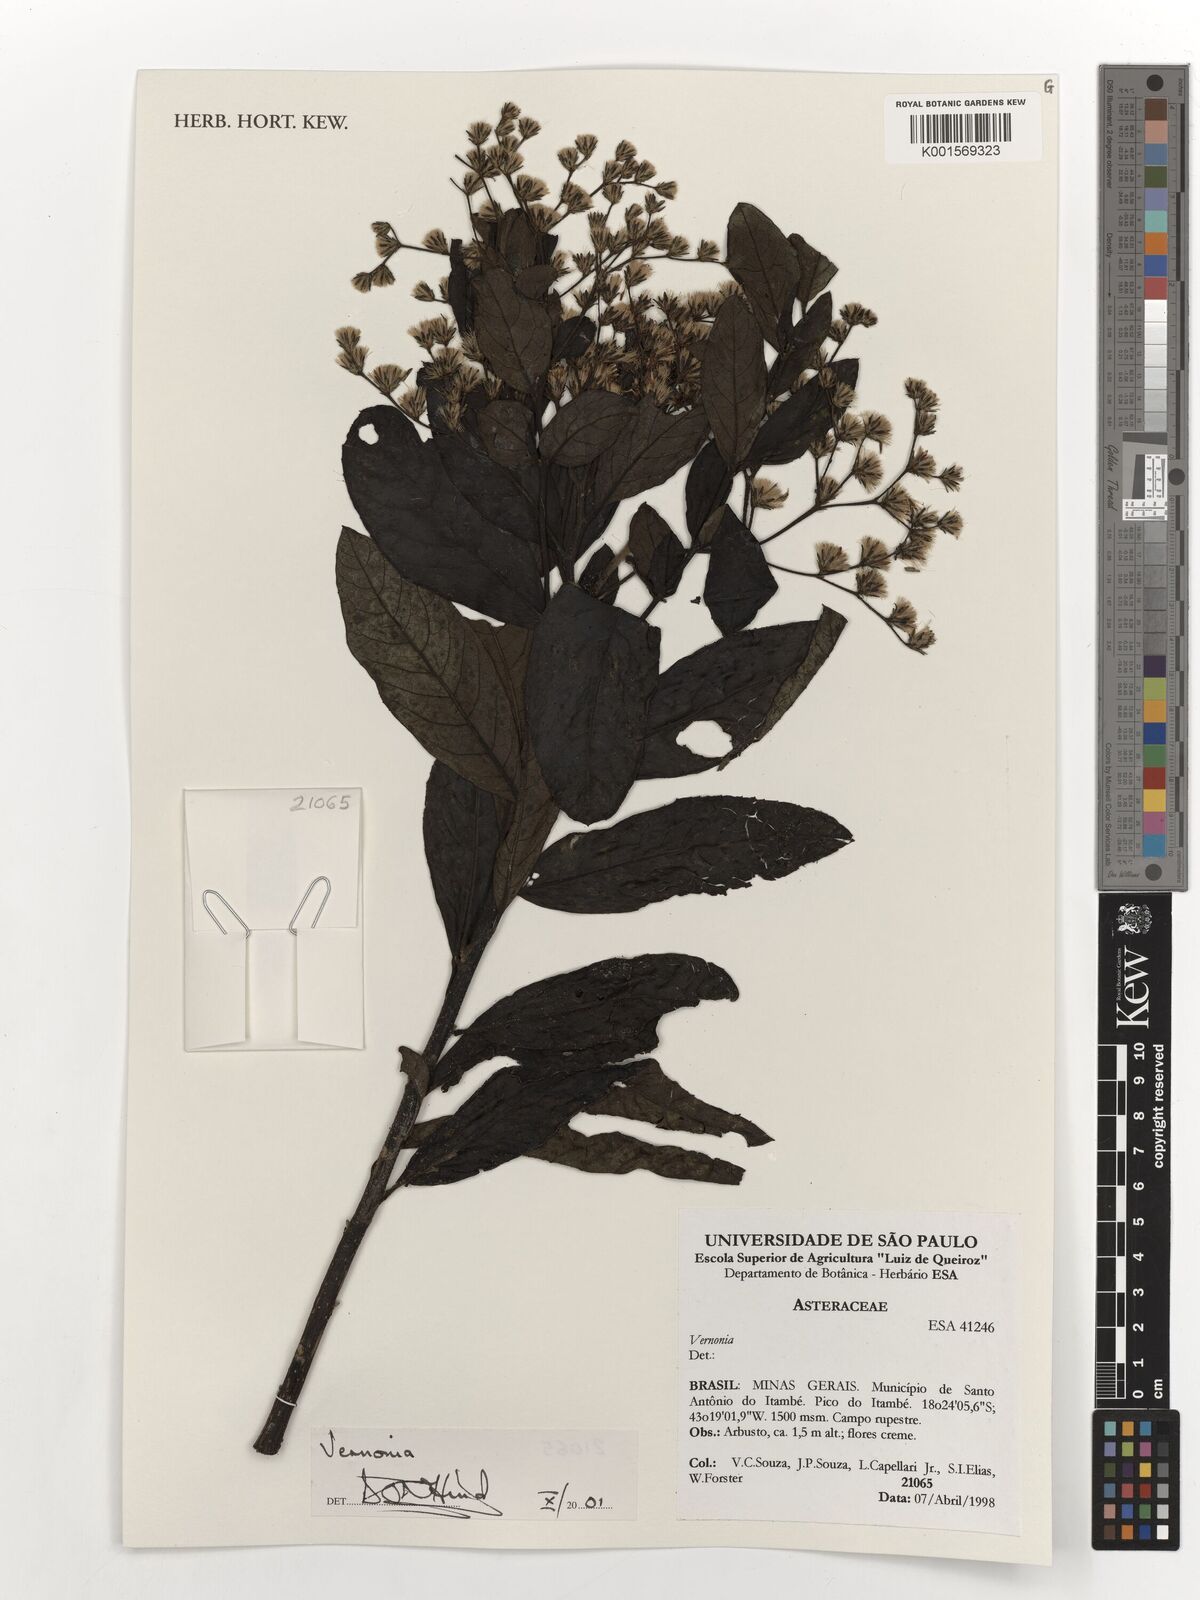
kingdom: Plantae
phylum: Tracheophyta
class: Magnoliopsida
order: Asterales
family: Asteraceae
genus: Vernonia
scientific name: Vernonia
